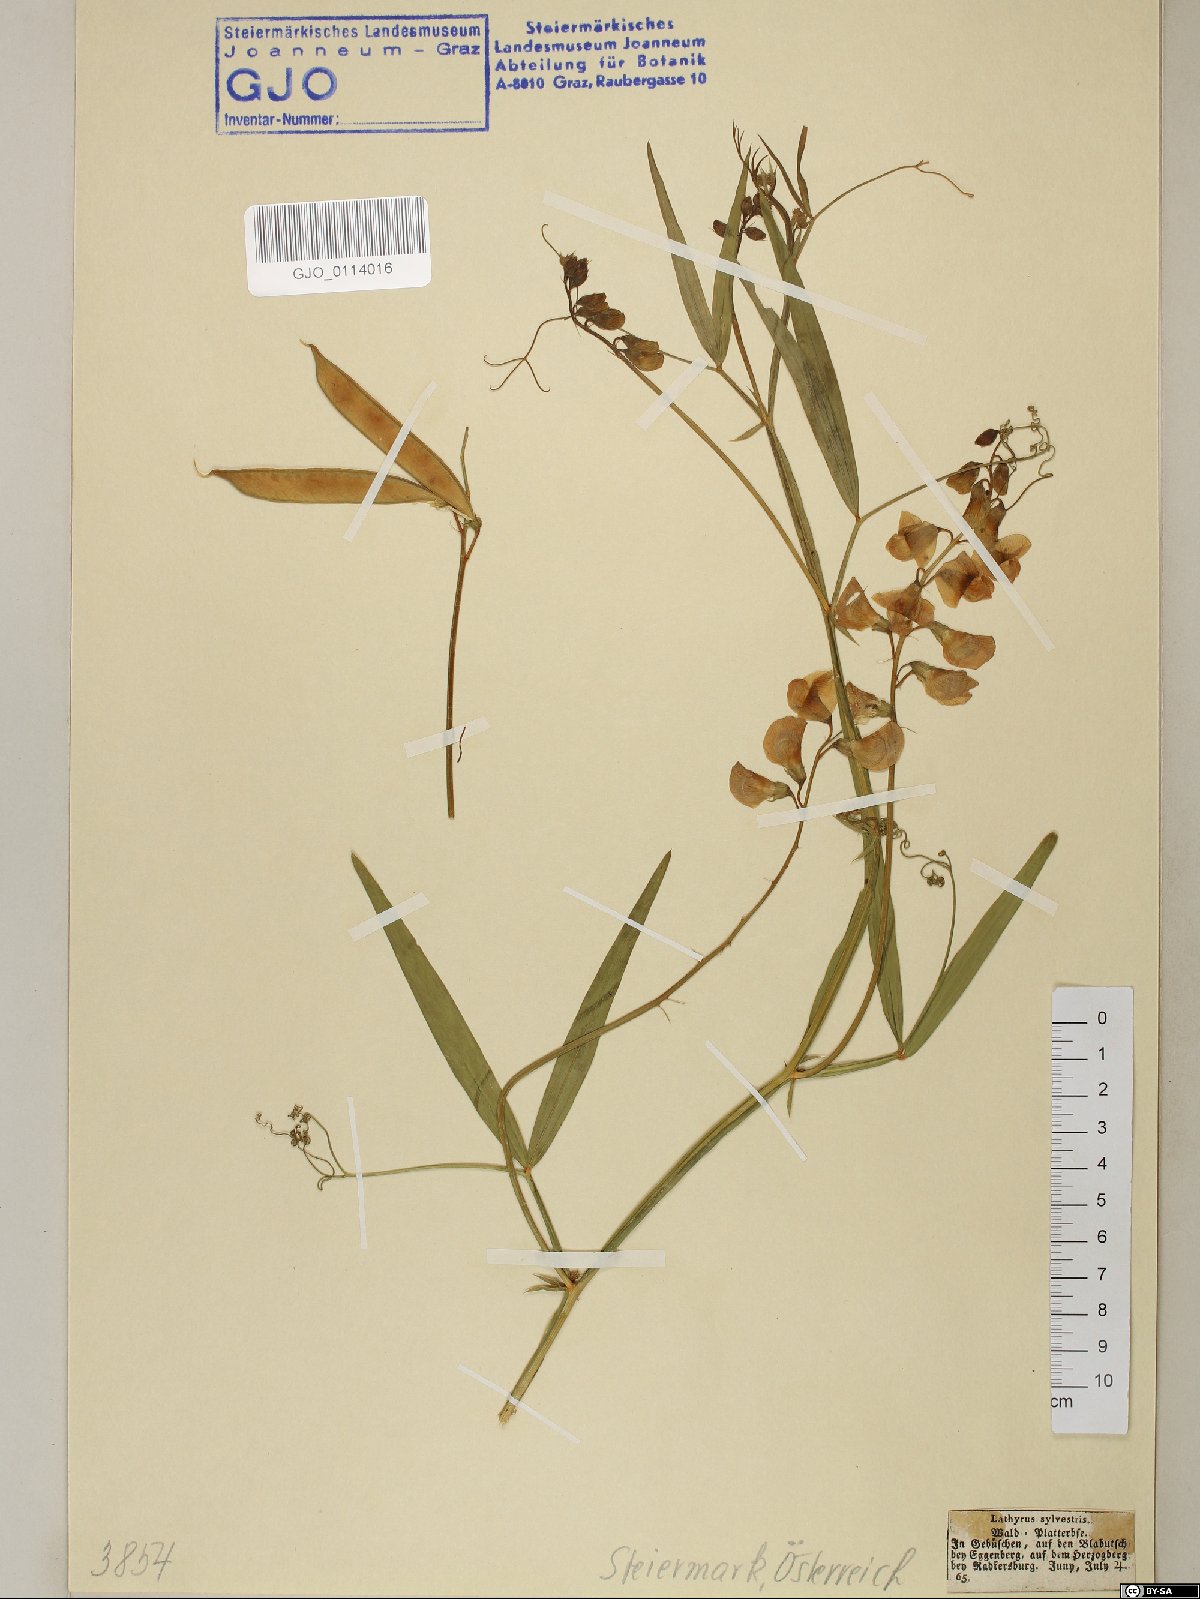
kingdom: Plantae
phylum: Tracheophyta
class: Magnoliopsida
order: Fabales
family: Fabaceae
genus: Lathyrus
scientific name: Lathyrus sylvestris
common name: Flat pea
